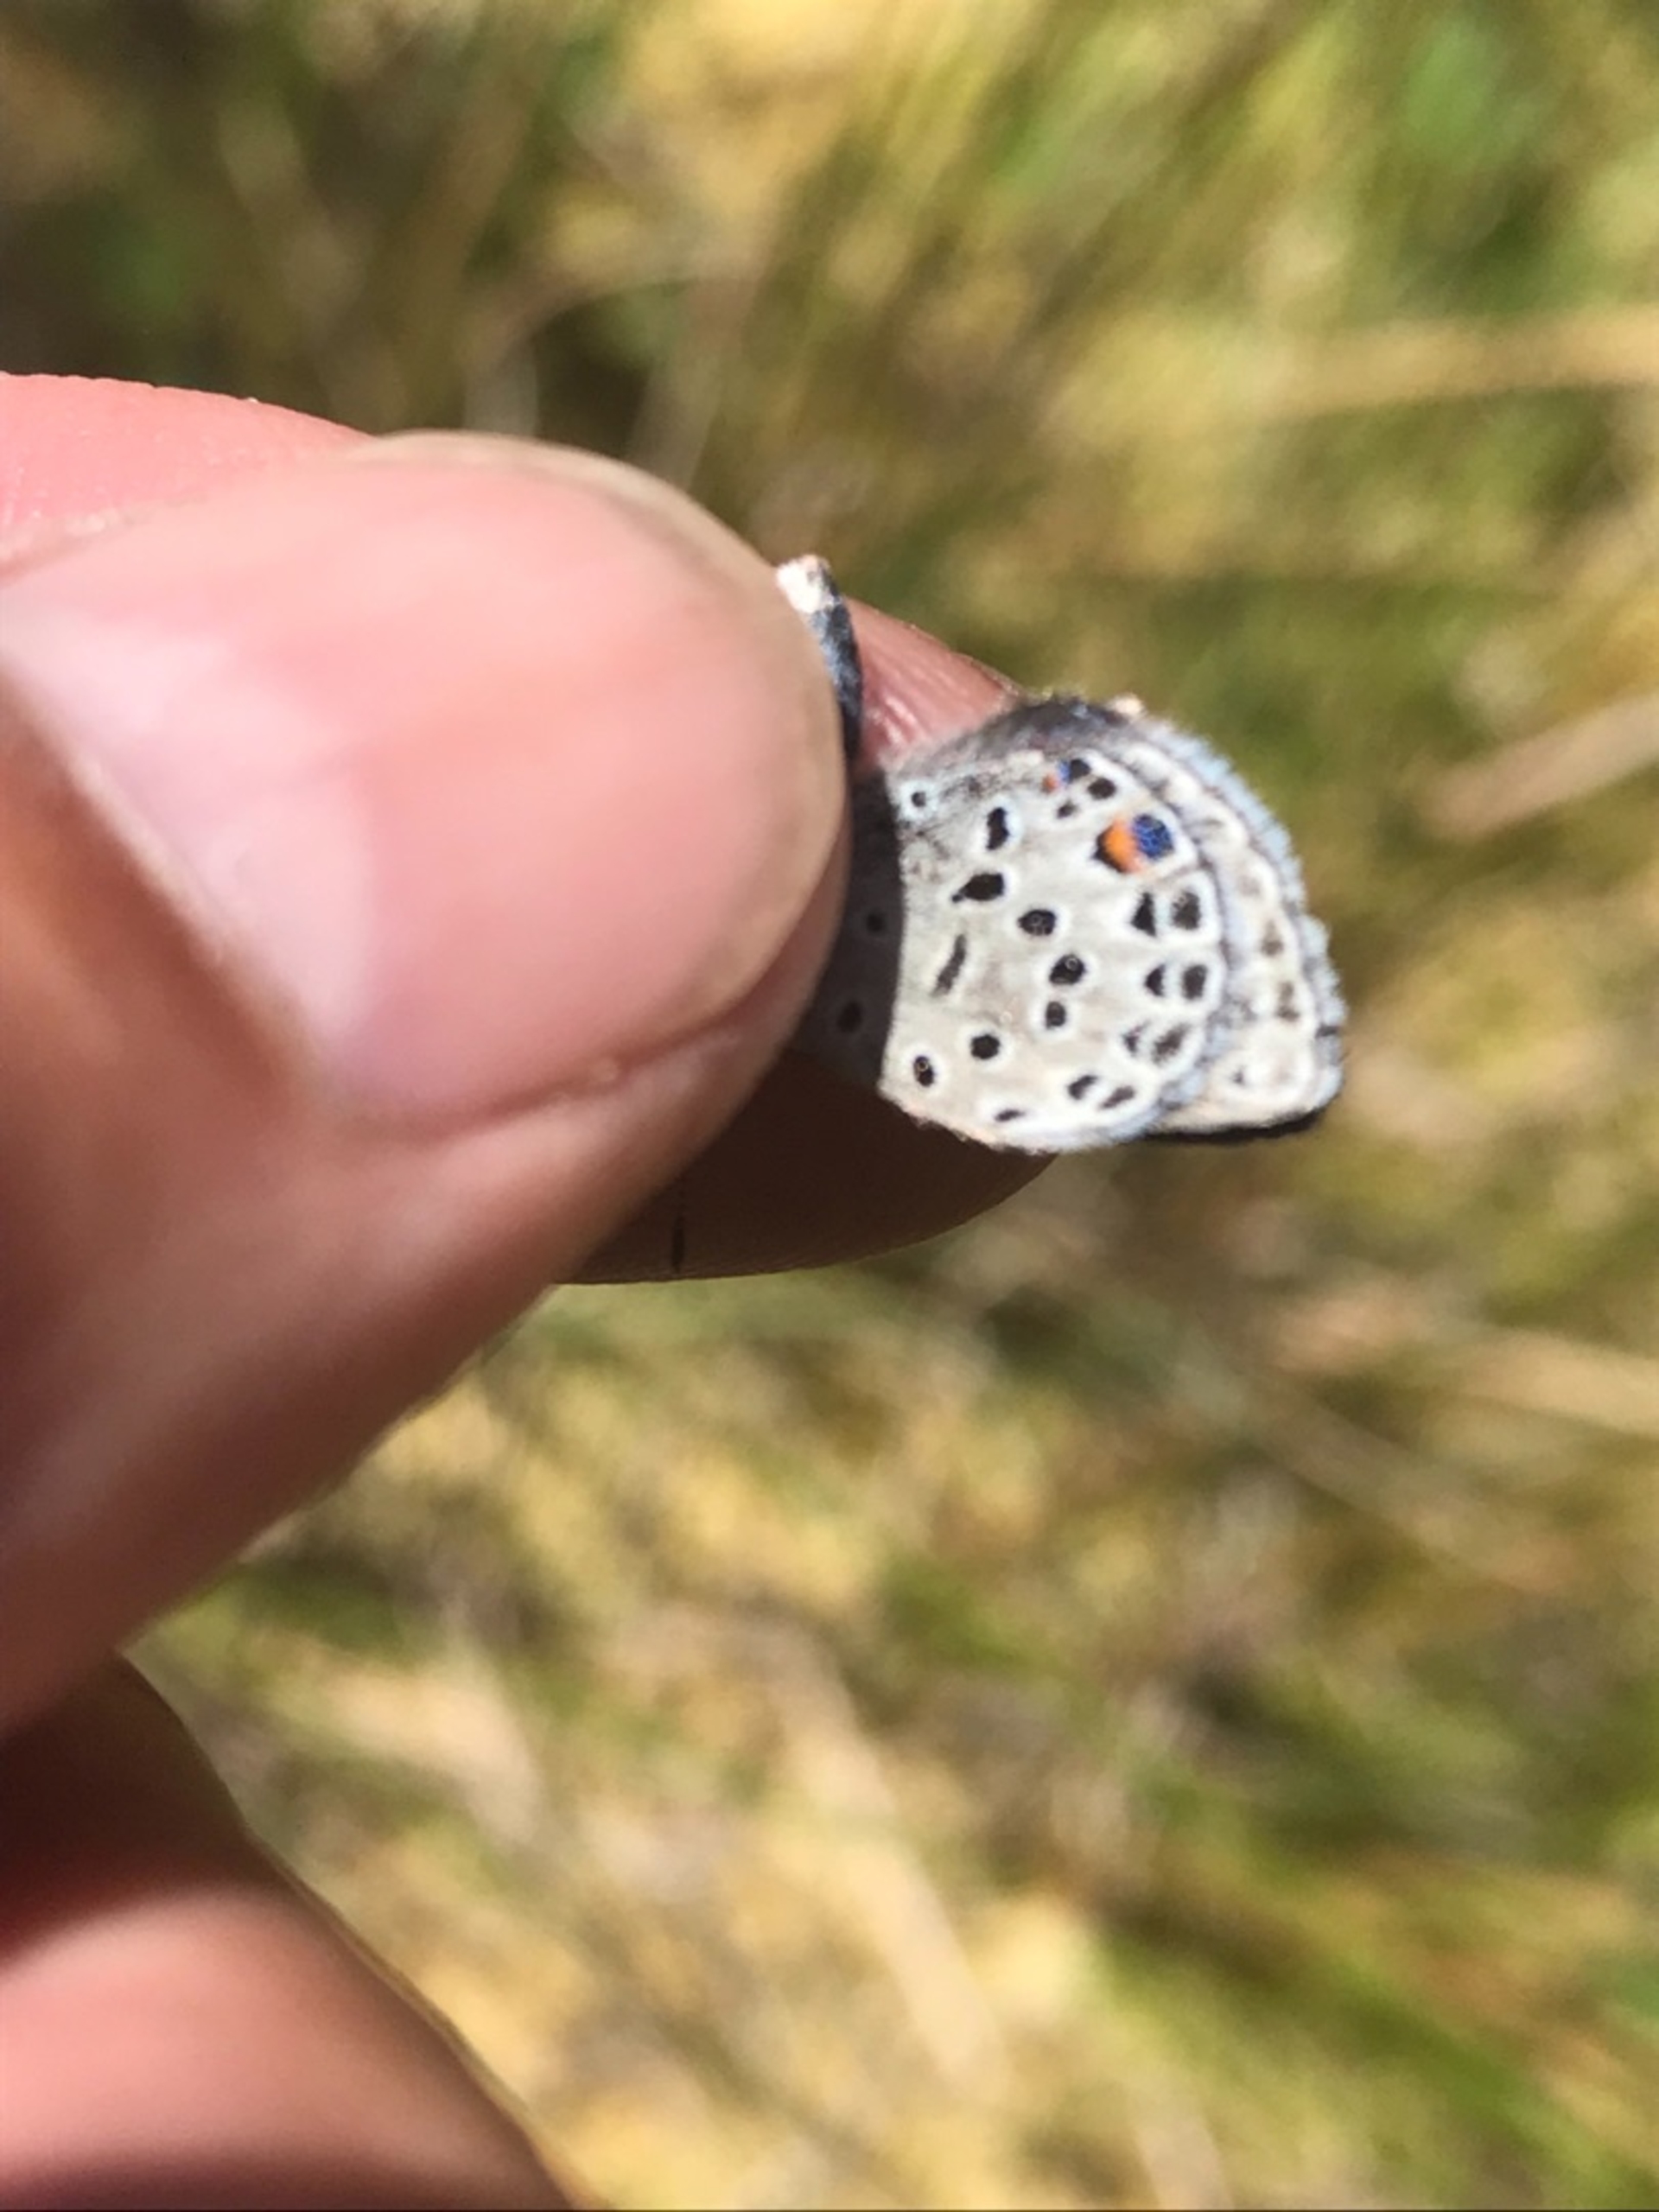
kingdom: Animalia
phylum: Arthropoda
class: Insecta
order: Lepidoptera
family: Lycaenidae
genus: Vacciniina
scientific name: Vacciniina optilete
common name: Bølleblåfugl
